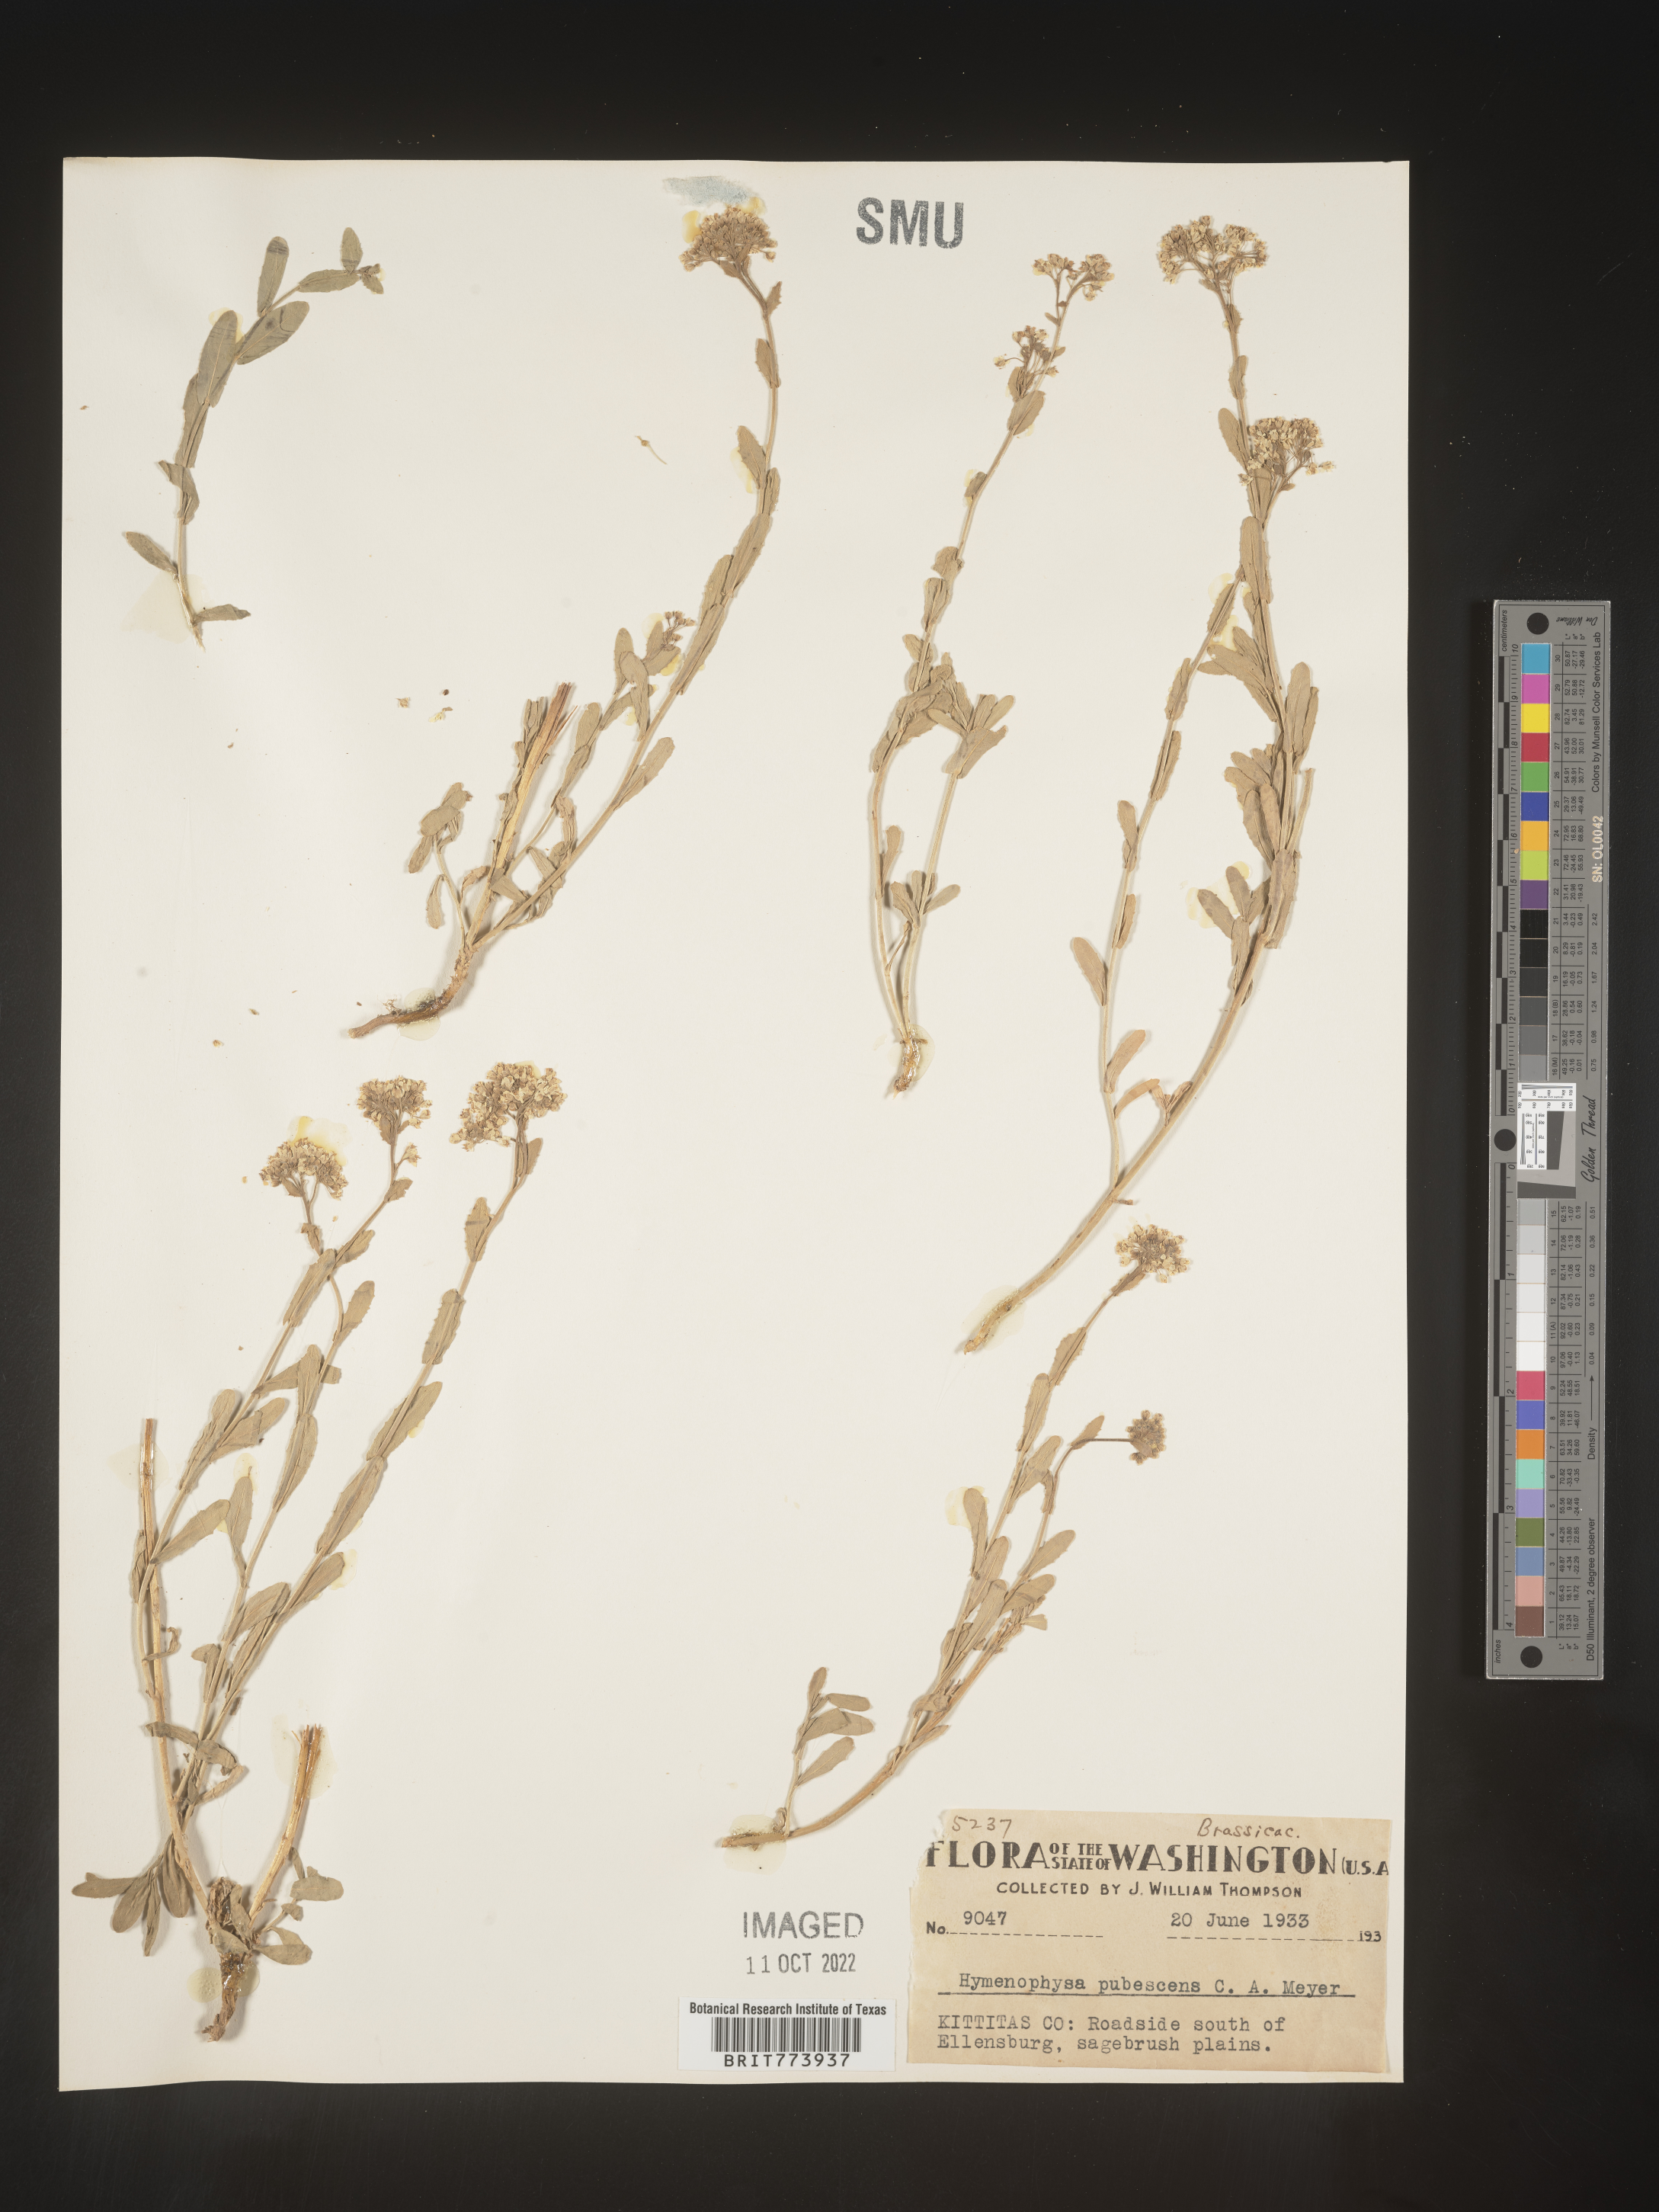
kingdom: Plantae
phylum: Tracheophyta
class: Magnoliopsida
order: Brassicales
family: Brassicaceae
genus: Lepidium
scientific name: Lepidium appelianum
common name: Hairy whitetop
